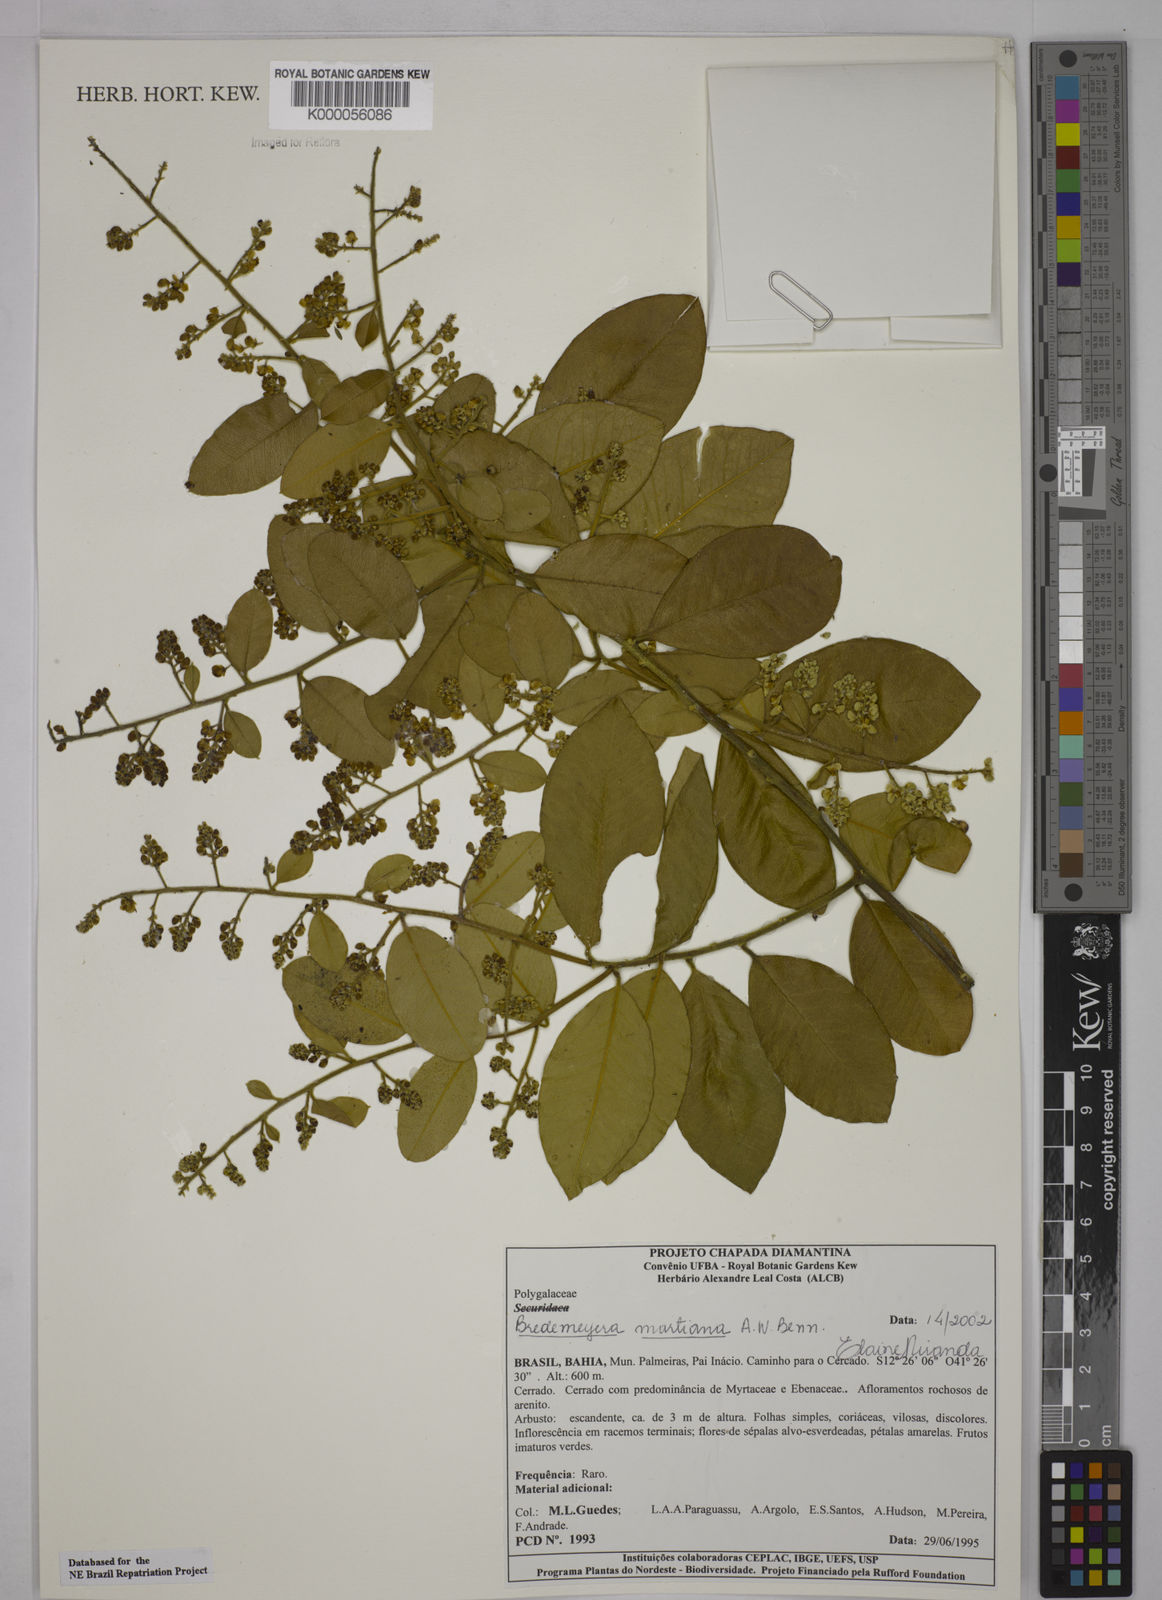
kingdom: Plantae
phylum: Tracheophyta
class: Magnoliopsida
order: Fabales
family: Polygalaceae
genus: Bredemeyera
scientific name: Bredemeyera martiana
